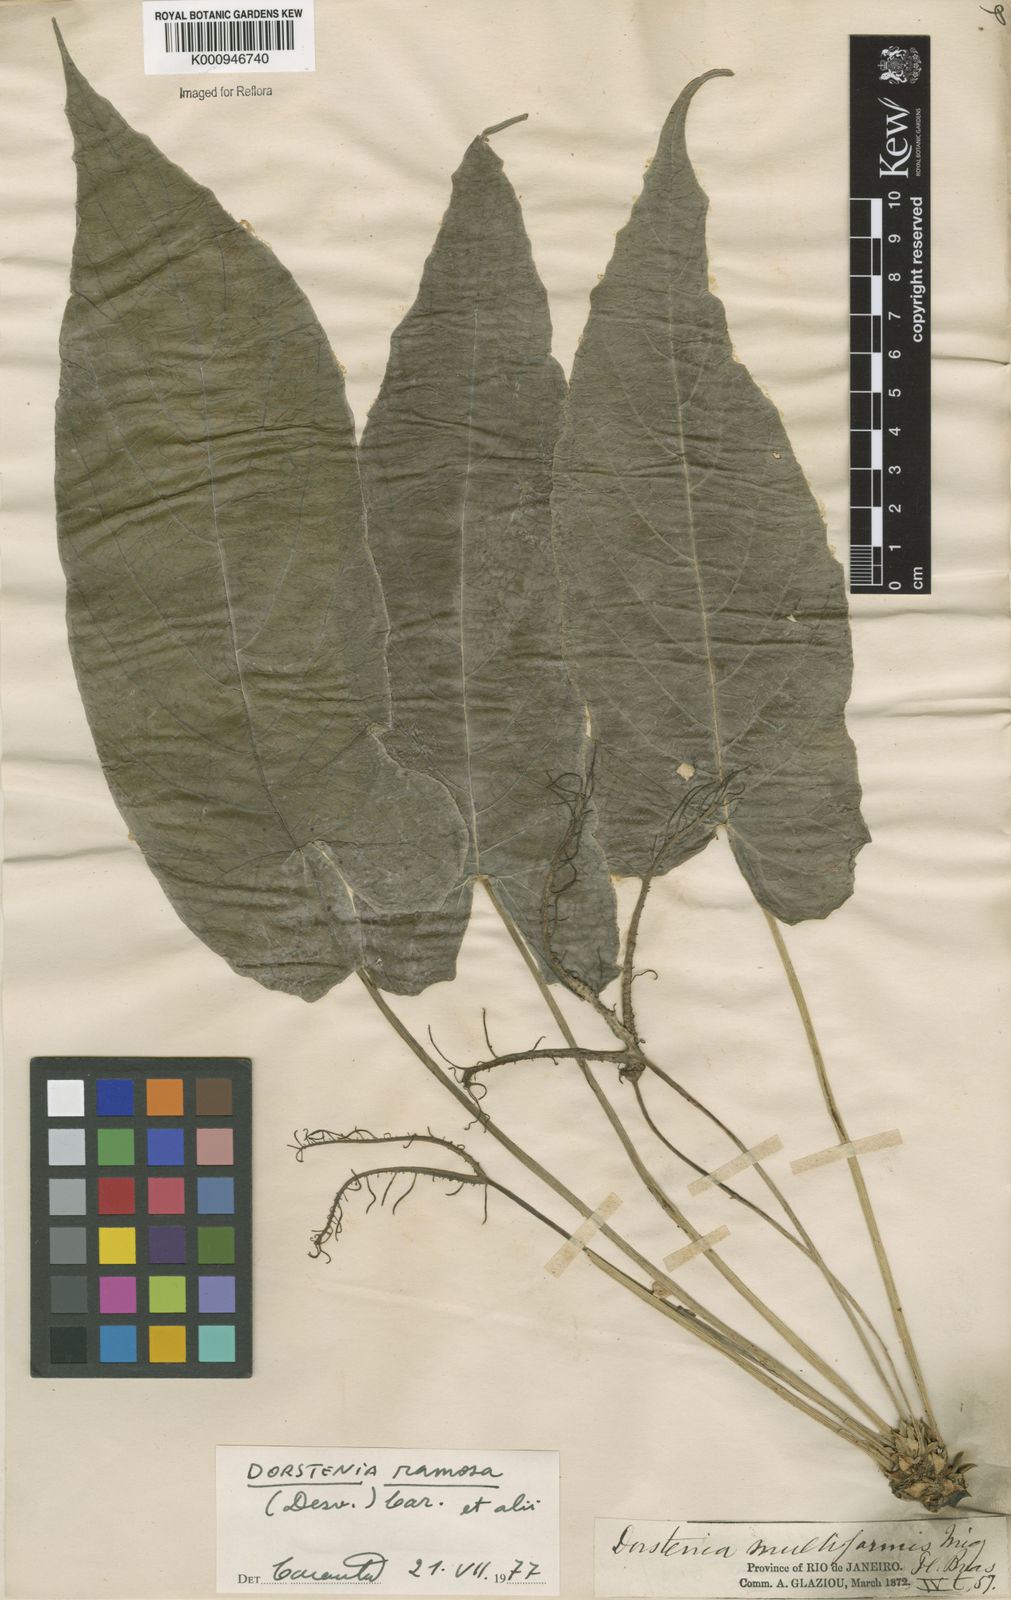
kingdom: Plantae
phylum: Tracheophyta
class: Magnoliopsida
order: Rosales
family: Moraceae
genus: Dorstenia
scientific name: Dorstenia ramosa
